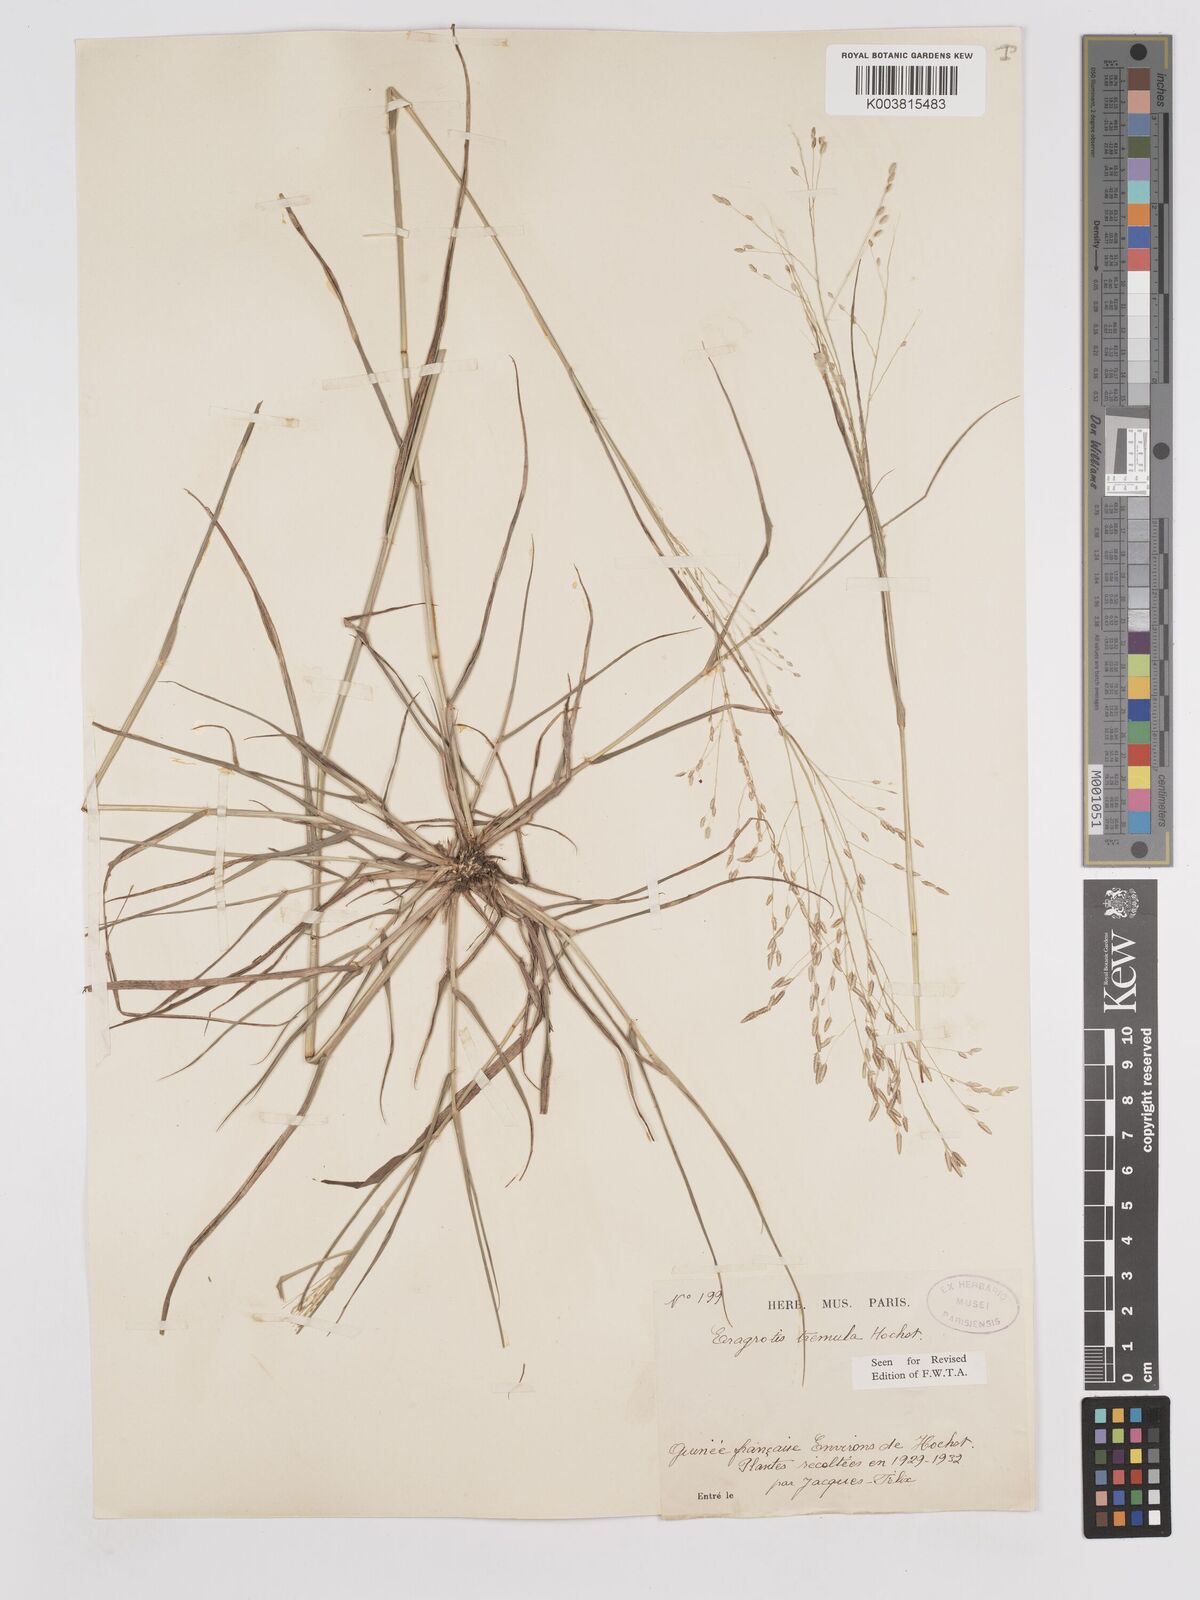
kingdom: Plantae
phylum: Tracheophyta
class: Liliopsida
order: Poales
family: Poaceae
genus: Eragrostis
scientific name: Eragrostis tremula
